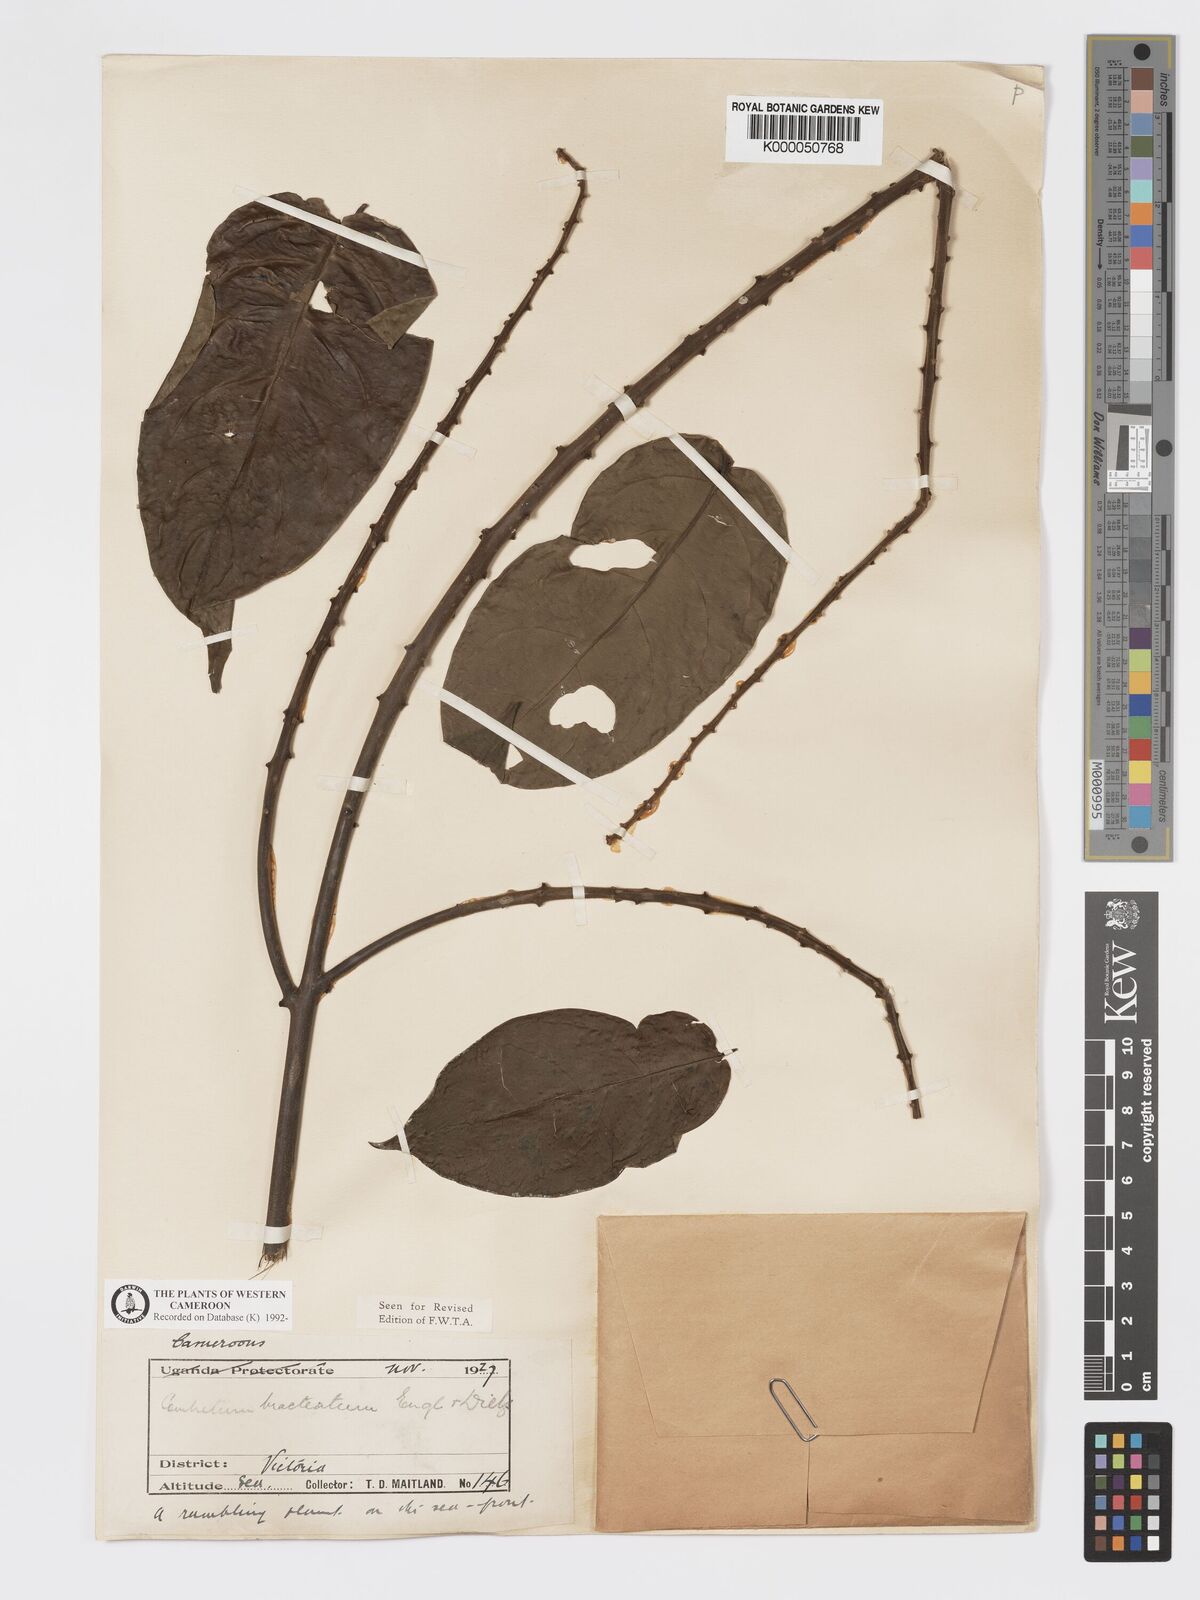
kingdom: Plantae
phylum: Tracheophyta
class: Magnoliopsida
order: Myrtales
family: Combretaceae
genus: Combretum
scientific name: Combretum bracteatum
